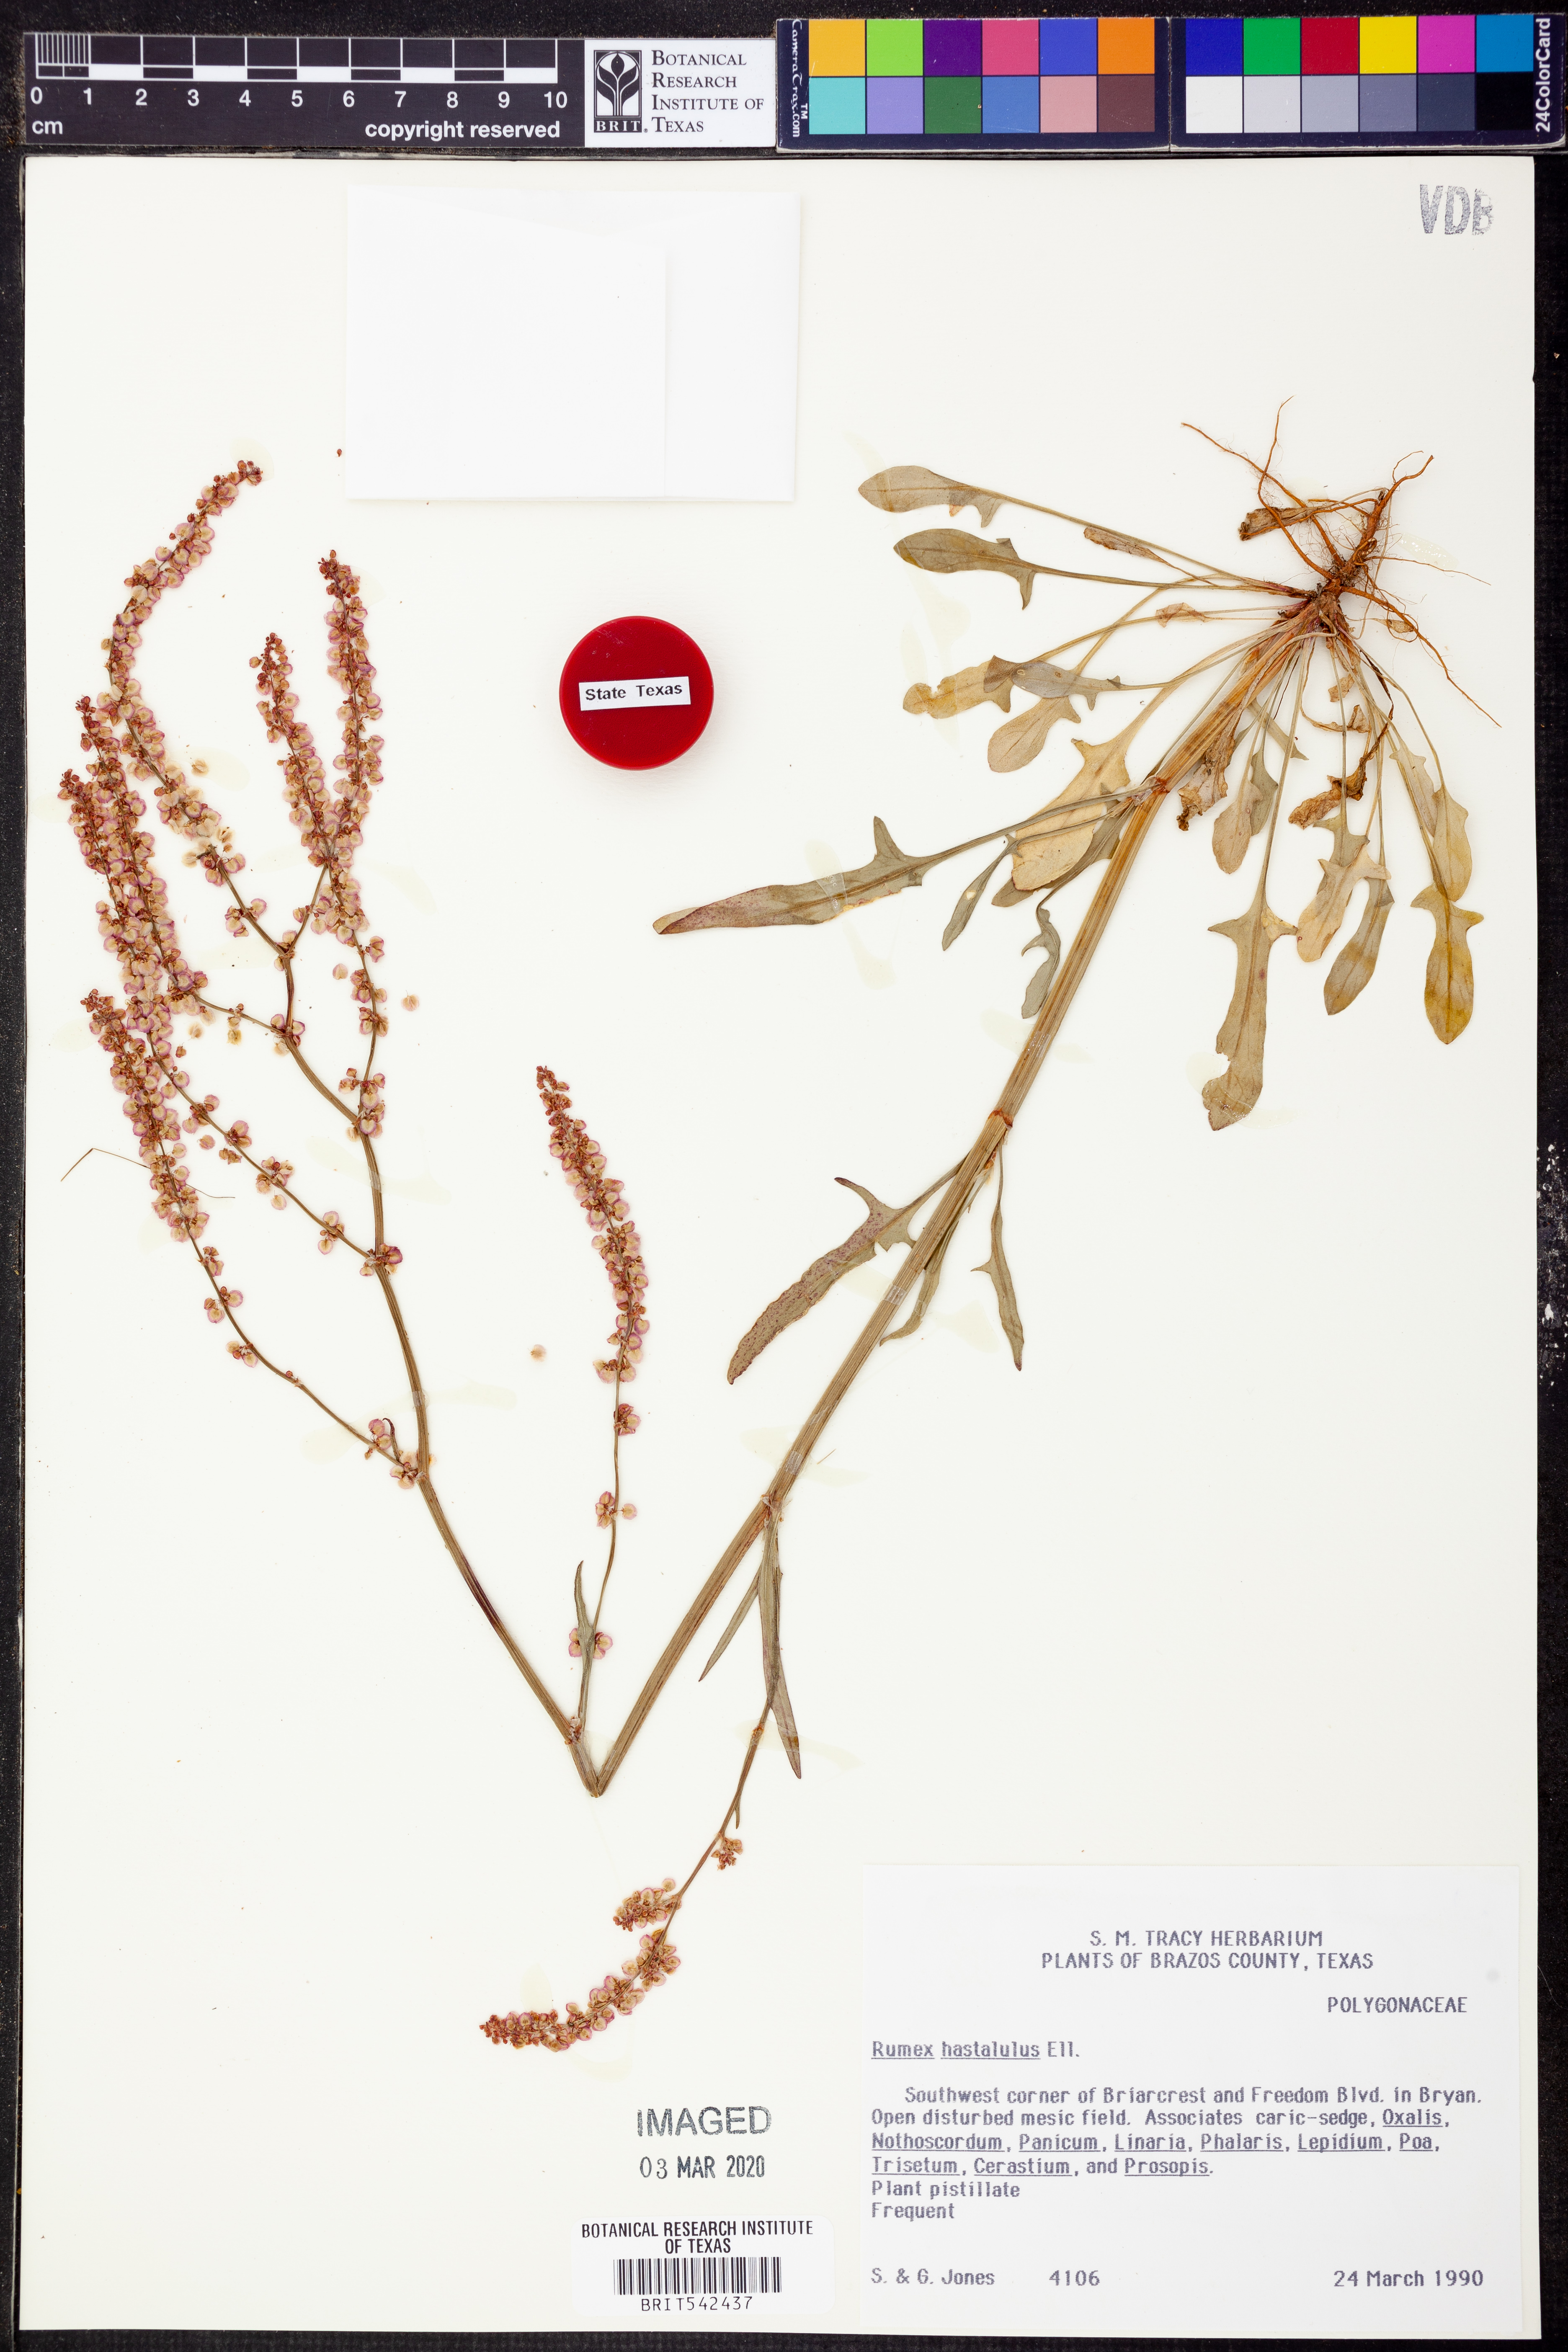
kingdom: Plantae
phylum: Tracheophyta
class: Magnoliopsida
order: Caryophyllales
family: Polygonaceae
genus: Rumex
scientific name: Rumex hastatulus
